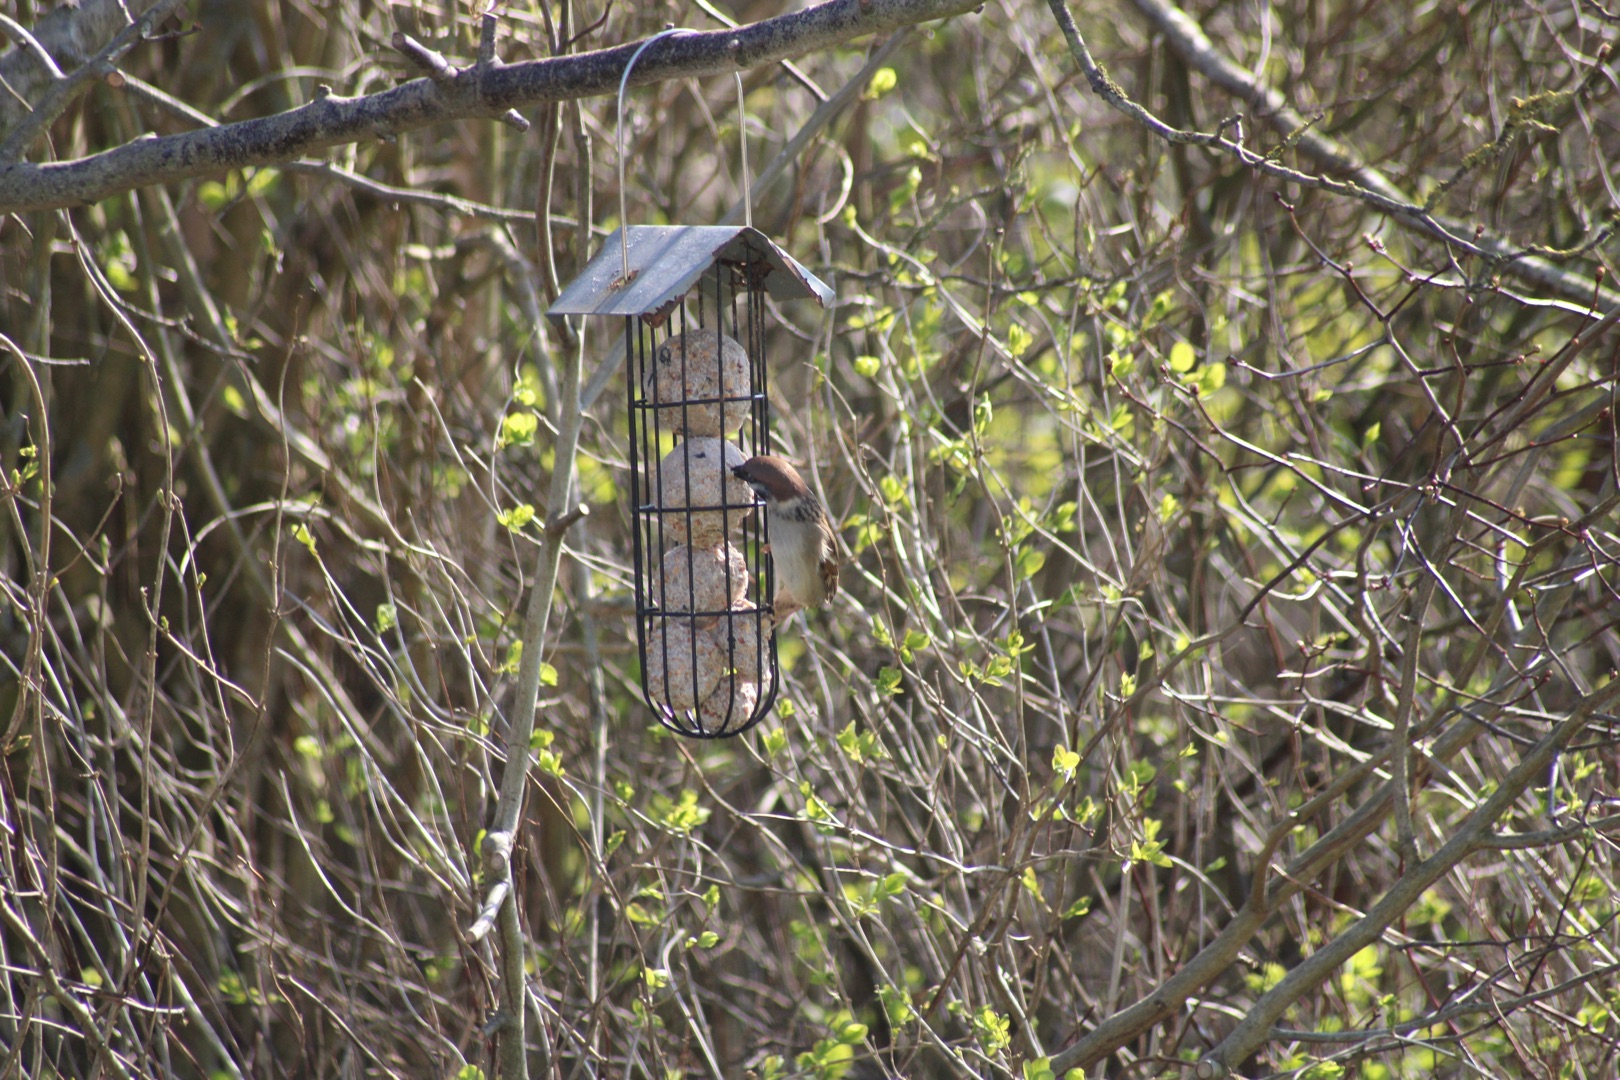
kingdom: Animalia
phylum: Chordata
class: Aves
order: Passeriformes
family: Passeridae
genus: Passer
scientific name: Passer montanus
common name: Skovspurv
